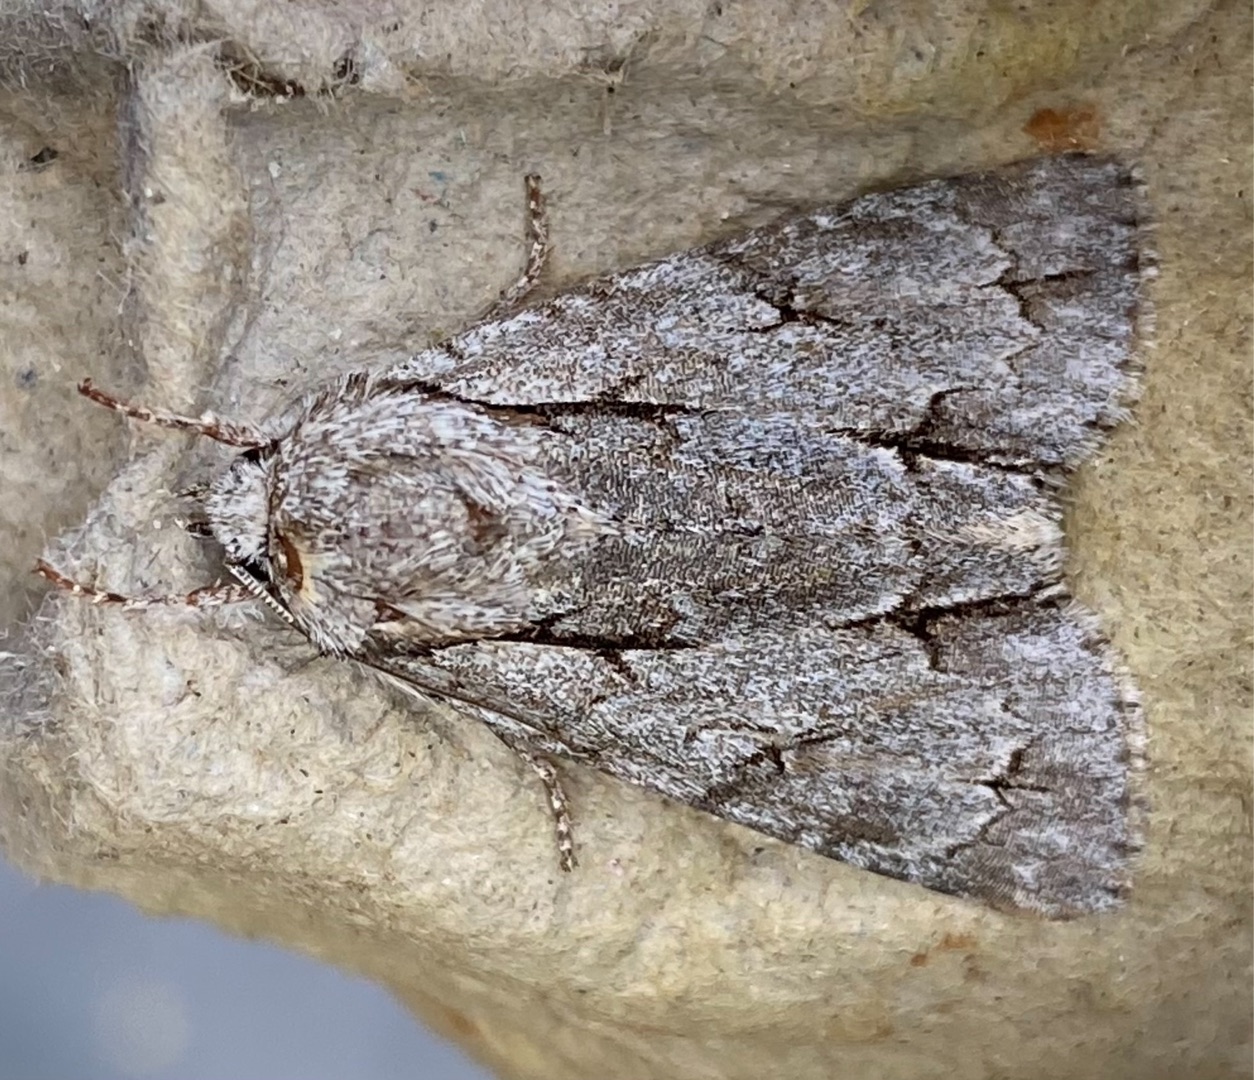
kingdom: Animalia
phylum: Arthropoda
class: Insecta
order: Lepidoptera
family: Noctuidae
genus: Acronicta
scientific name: Acronicta psi
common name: Psi-ugle
